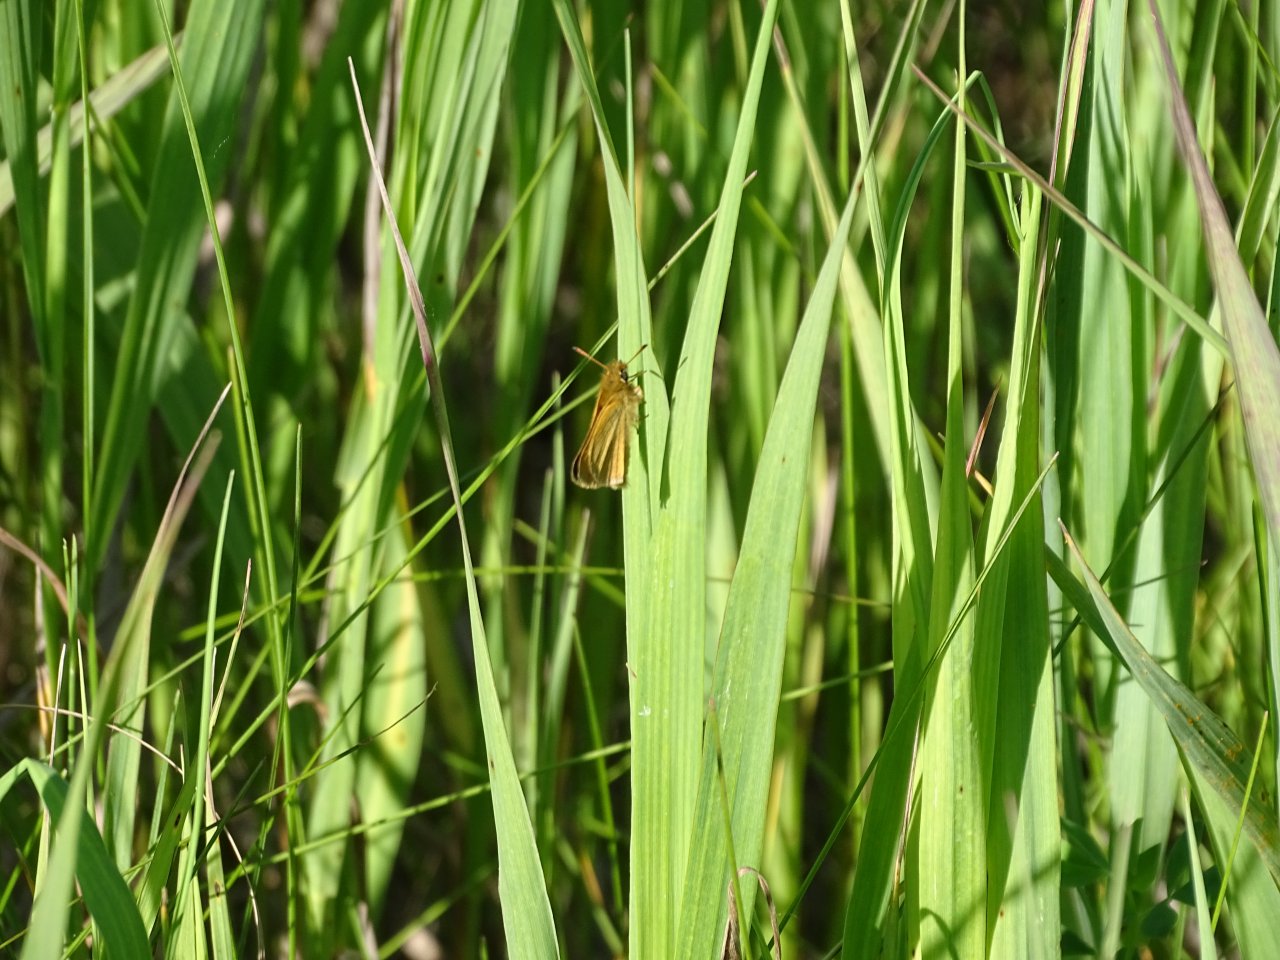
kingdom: Animalia
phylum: Arthropoda
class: Insecta
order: Lepidoptera
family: Hesperiidae
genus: Thymelicus
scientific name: Thymelicus lineola
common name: European Skipper
